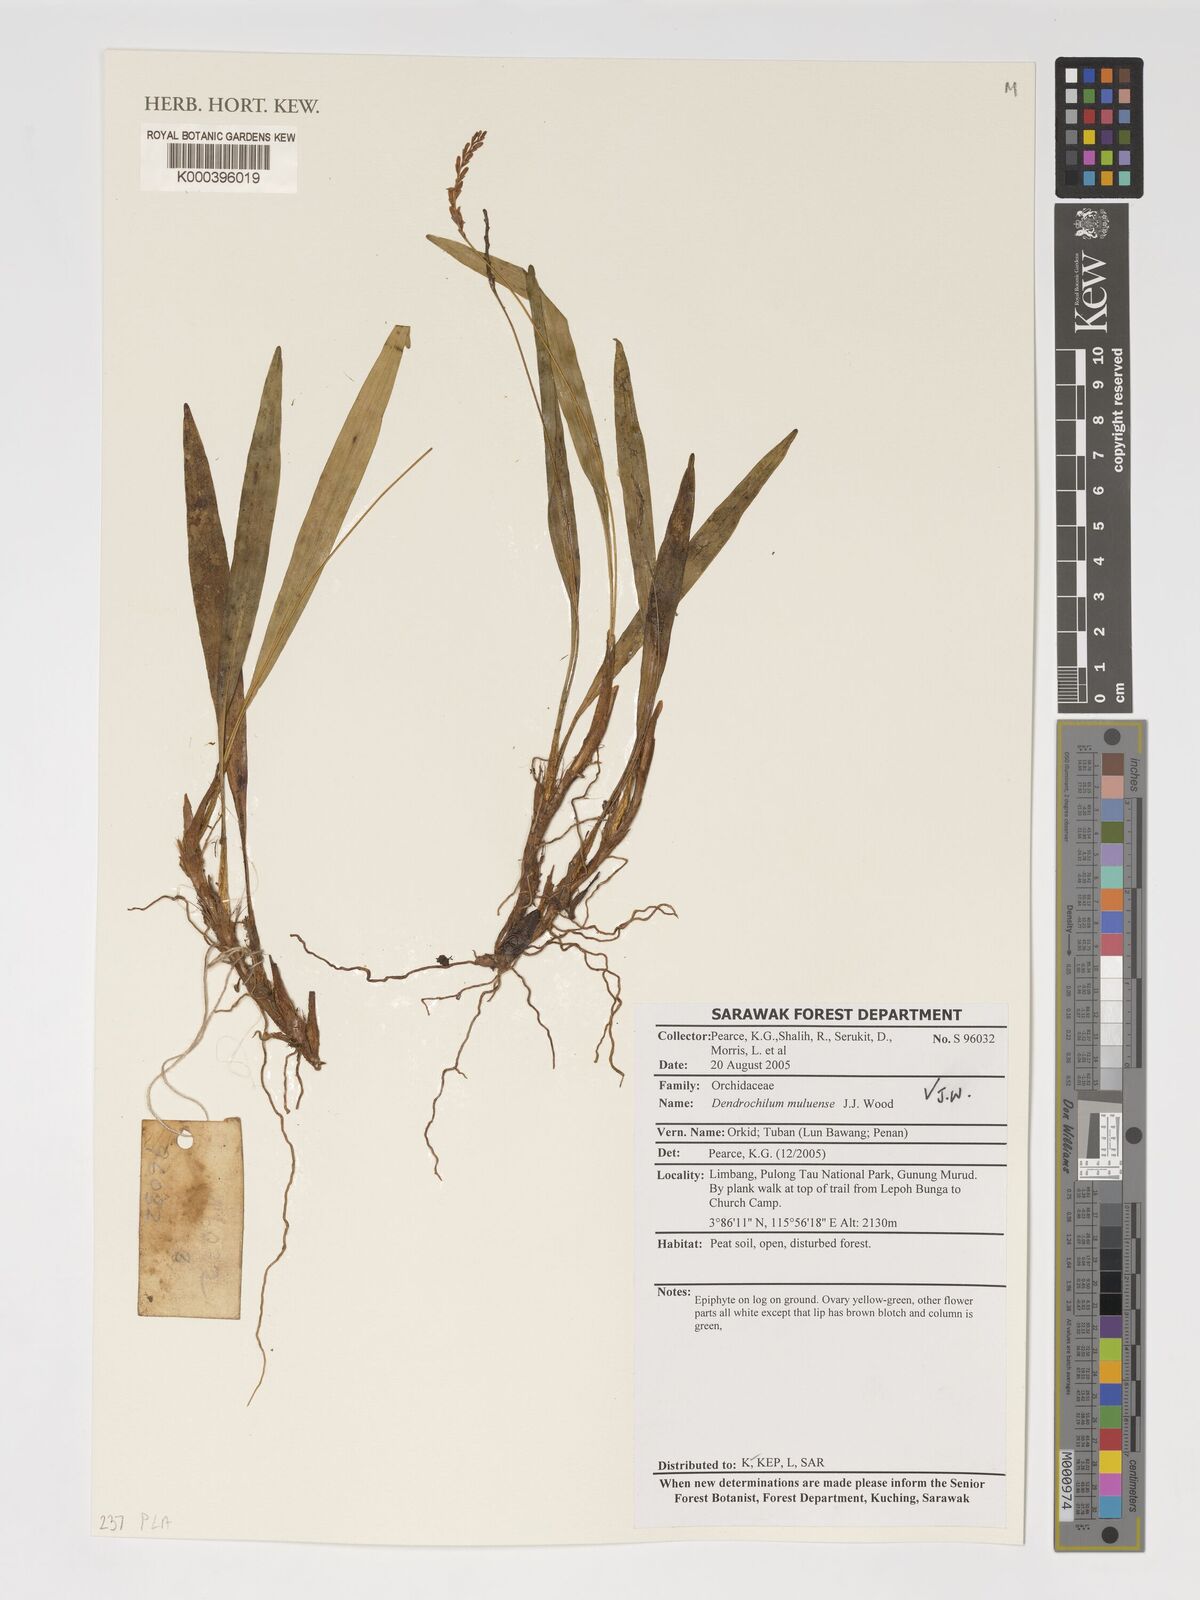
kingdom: Plantae
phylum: Tracheophyta
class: Liliopsida
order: Asparagales
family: Orchidaceae
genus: Coelogyne
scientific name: Coelogyne jeffwoodii
